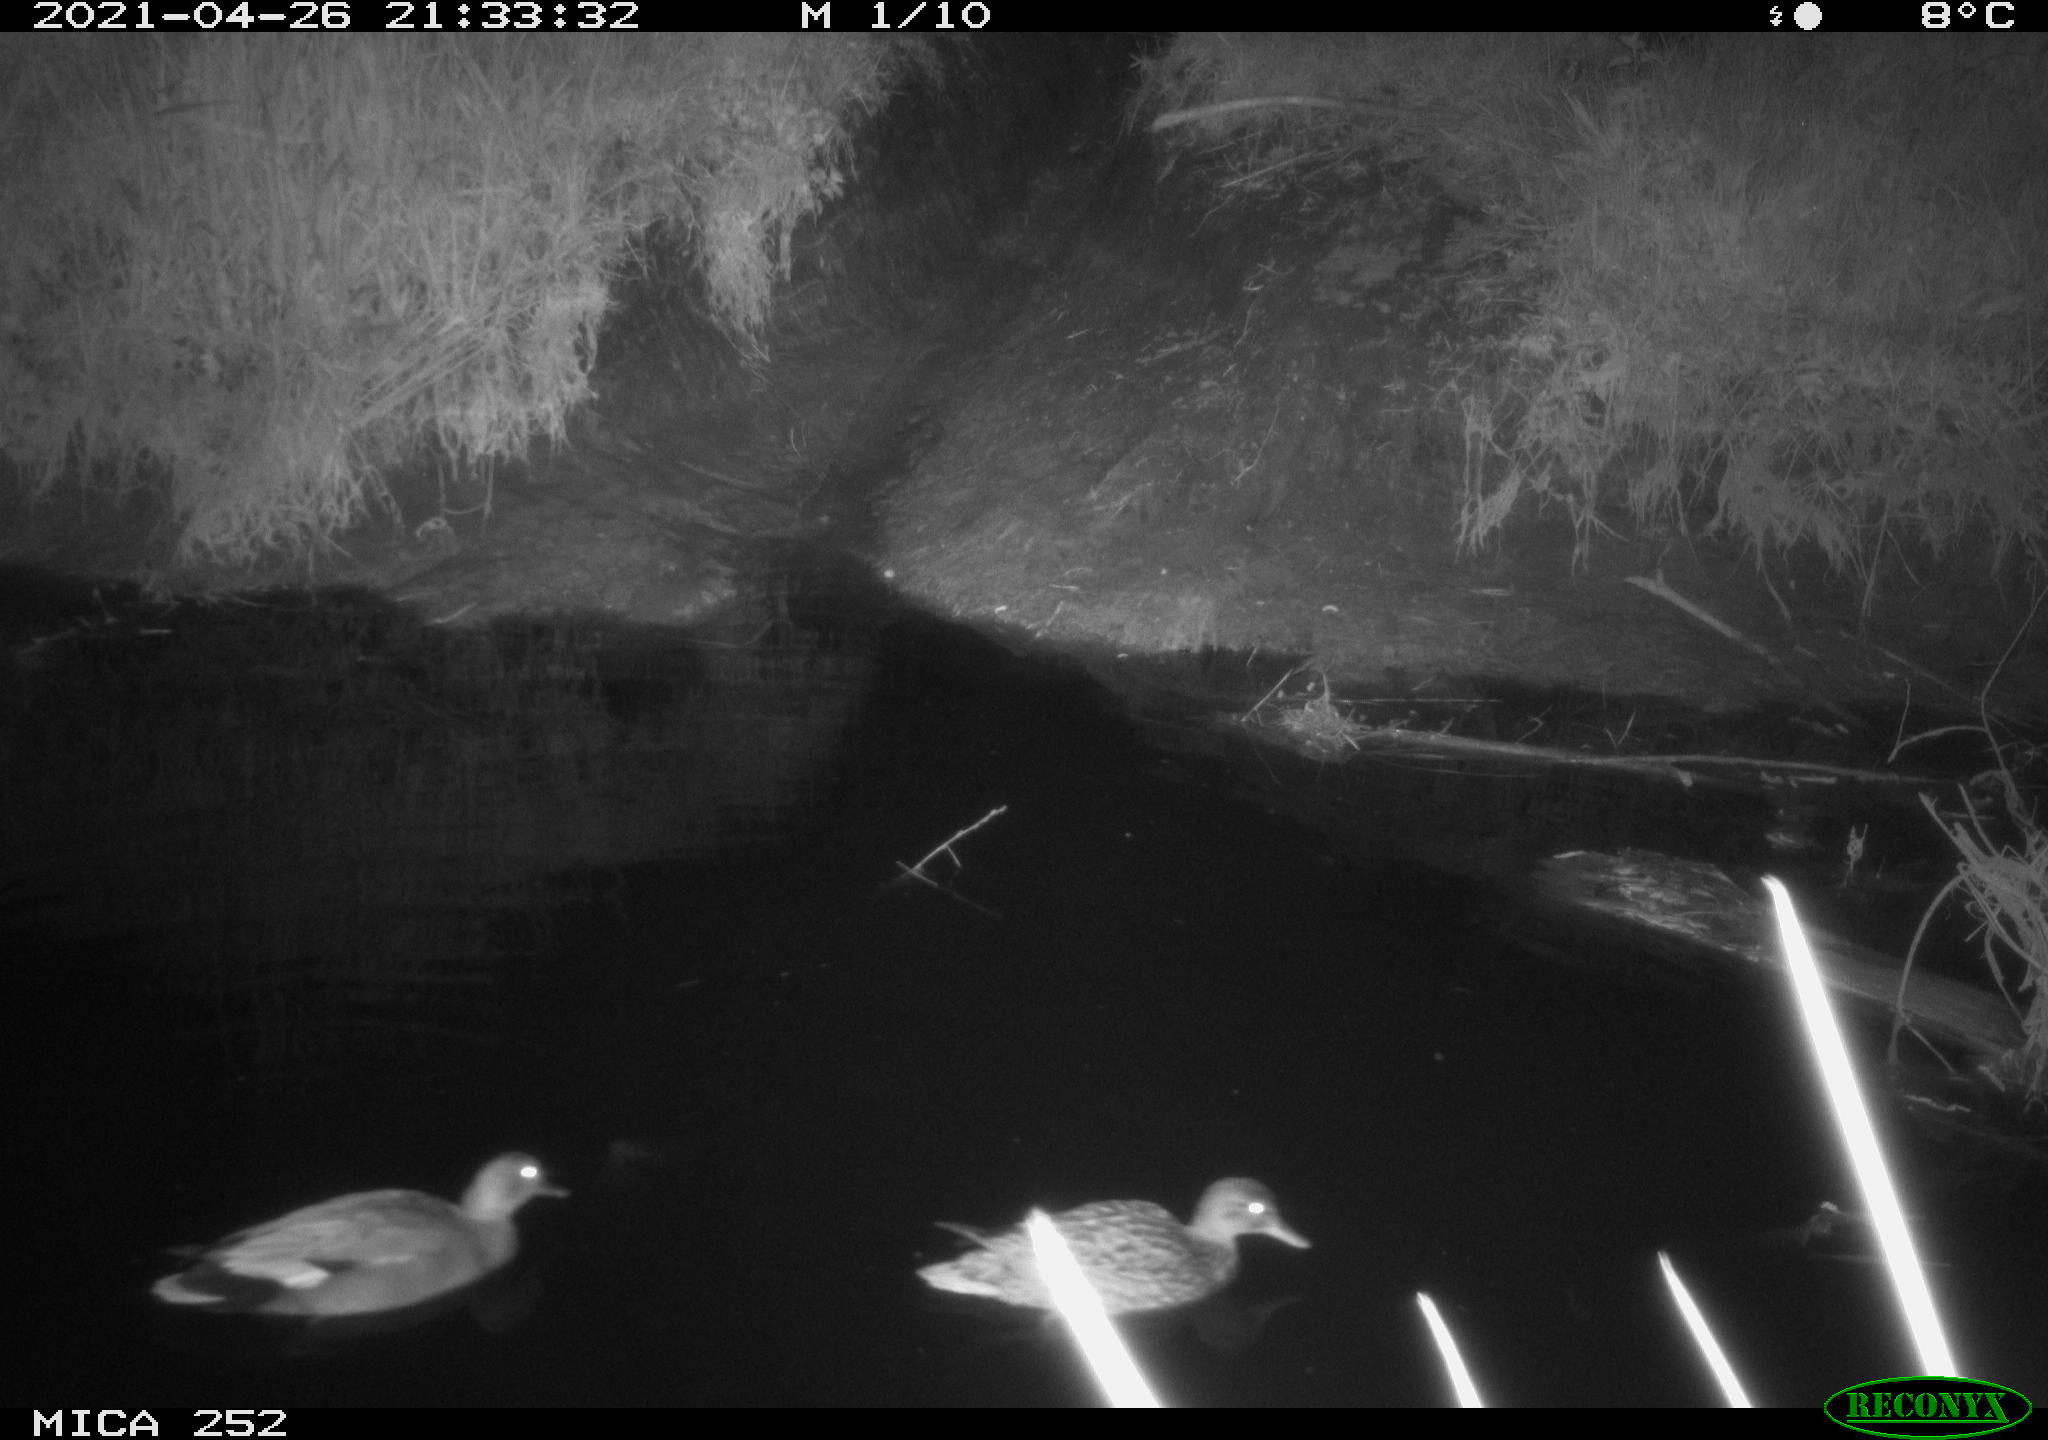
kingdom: Animalia
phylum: Chordata
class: Aves
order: Gruiformes
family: Rallidae
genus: Fulica
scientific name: Fulica atra
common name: Eurasian coot
